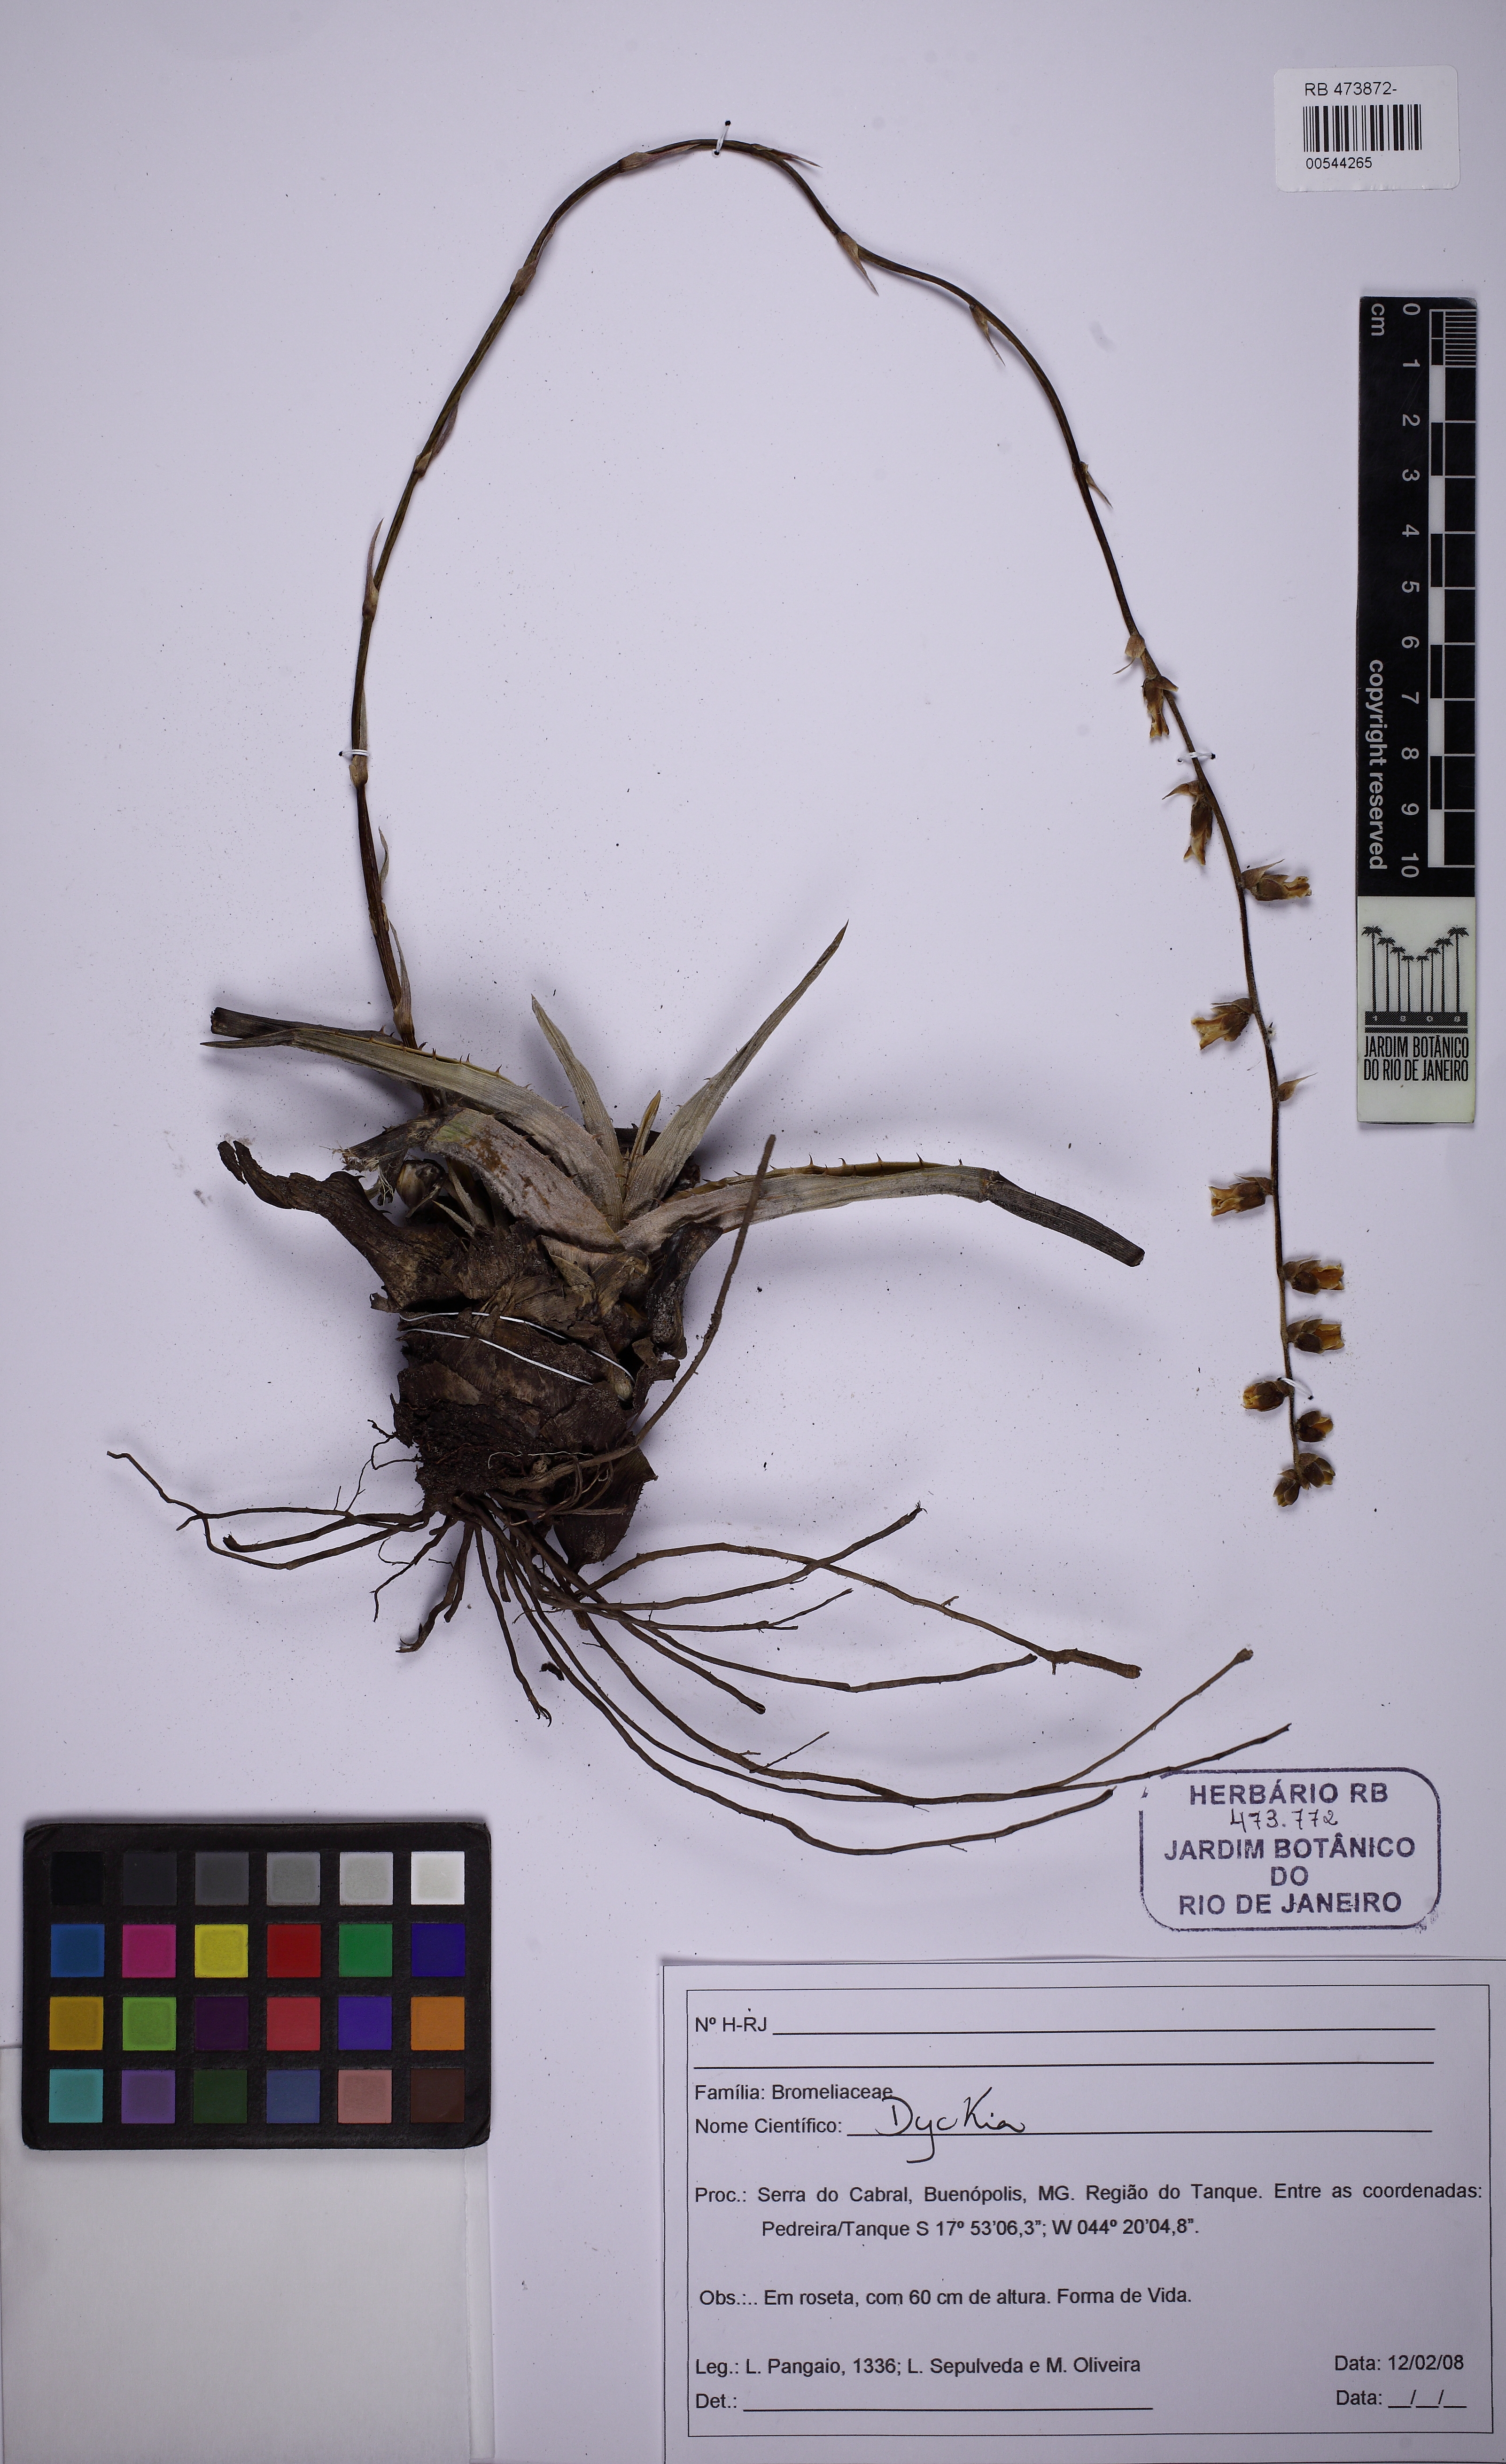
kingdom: Plantae
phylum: Tracheophyta
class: Liliopsida
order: Poales
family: Bromeliaceae
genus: Dyckia
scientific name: Dyckia joanae-marcioi
